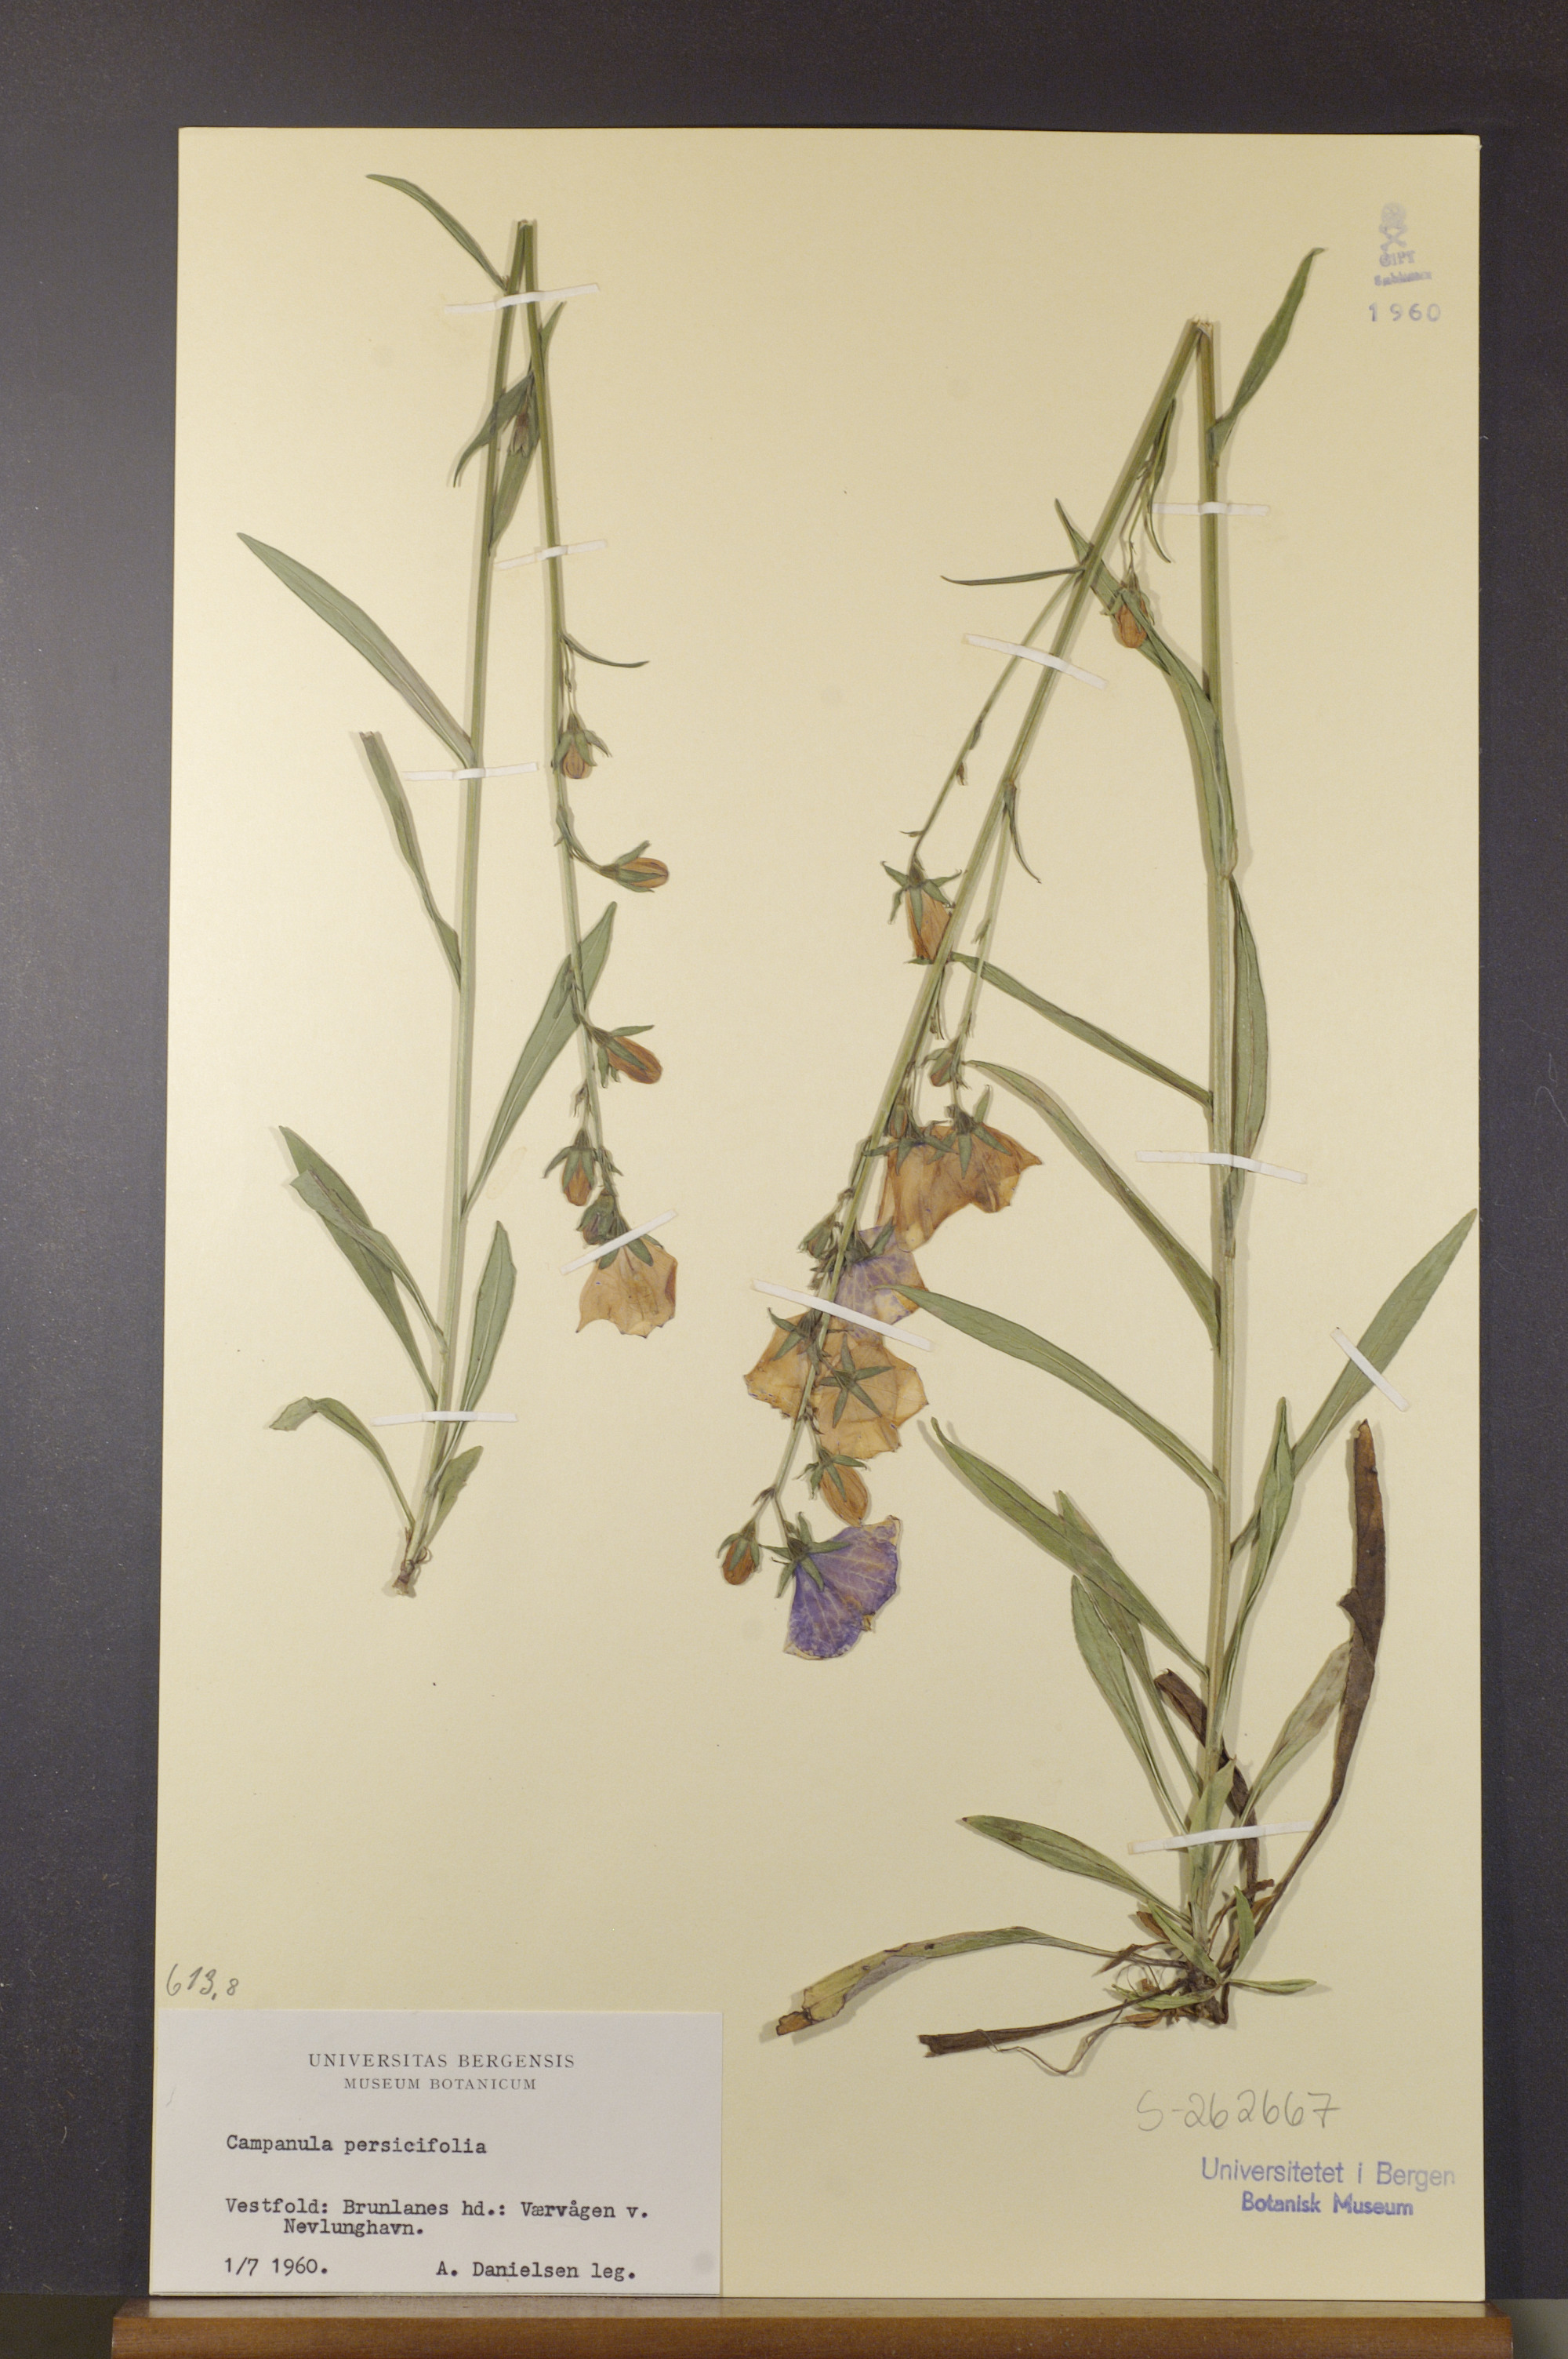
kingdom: Plantae
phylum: Tracheophyta
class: Magnoliopsida
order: Asterales
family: Campanulaceae
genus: Campanula
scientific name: Campanula persicifolia
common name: Peach-leaved bellflower
